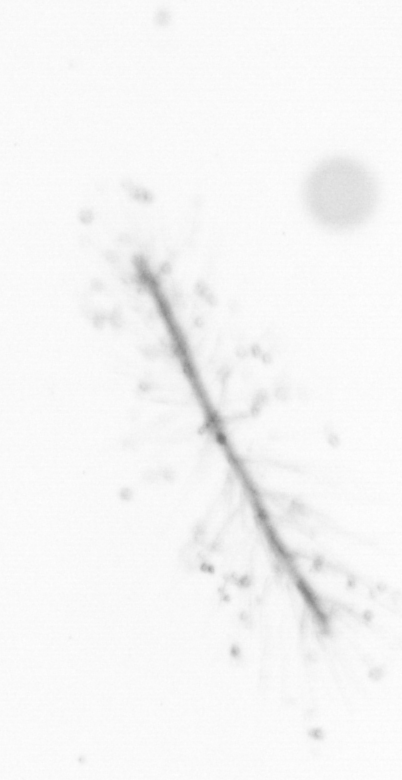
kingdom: Chromista
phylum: Ochrophyta
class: Bacillariophyceae
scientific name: Bacillariophyceae
